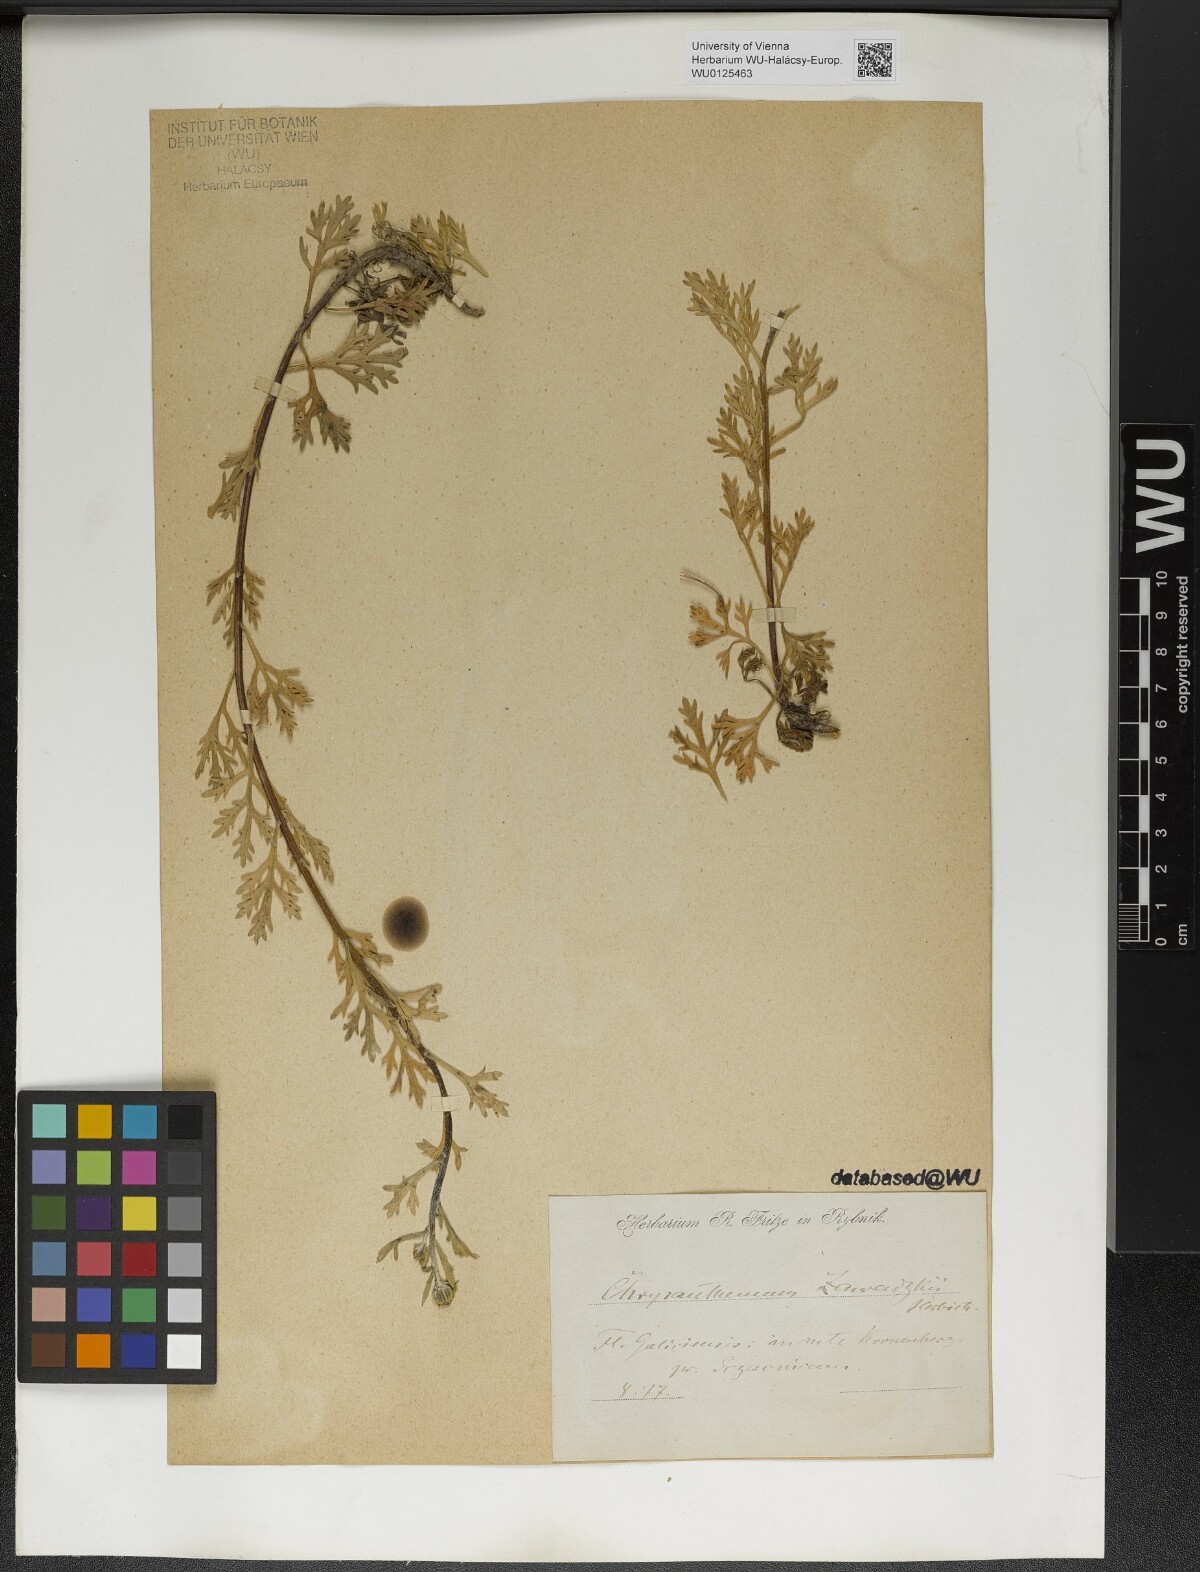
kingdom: Plantae
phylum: Tracheophyta
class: Magnoliopsida
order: Asterales
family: Asteraceae
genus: Chrysanthemum
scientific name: Chrysanthemum zawadzkii
